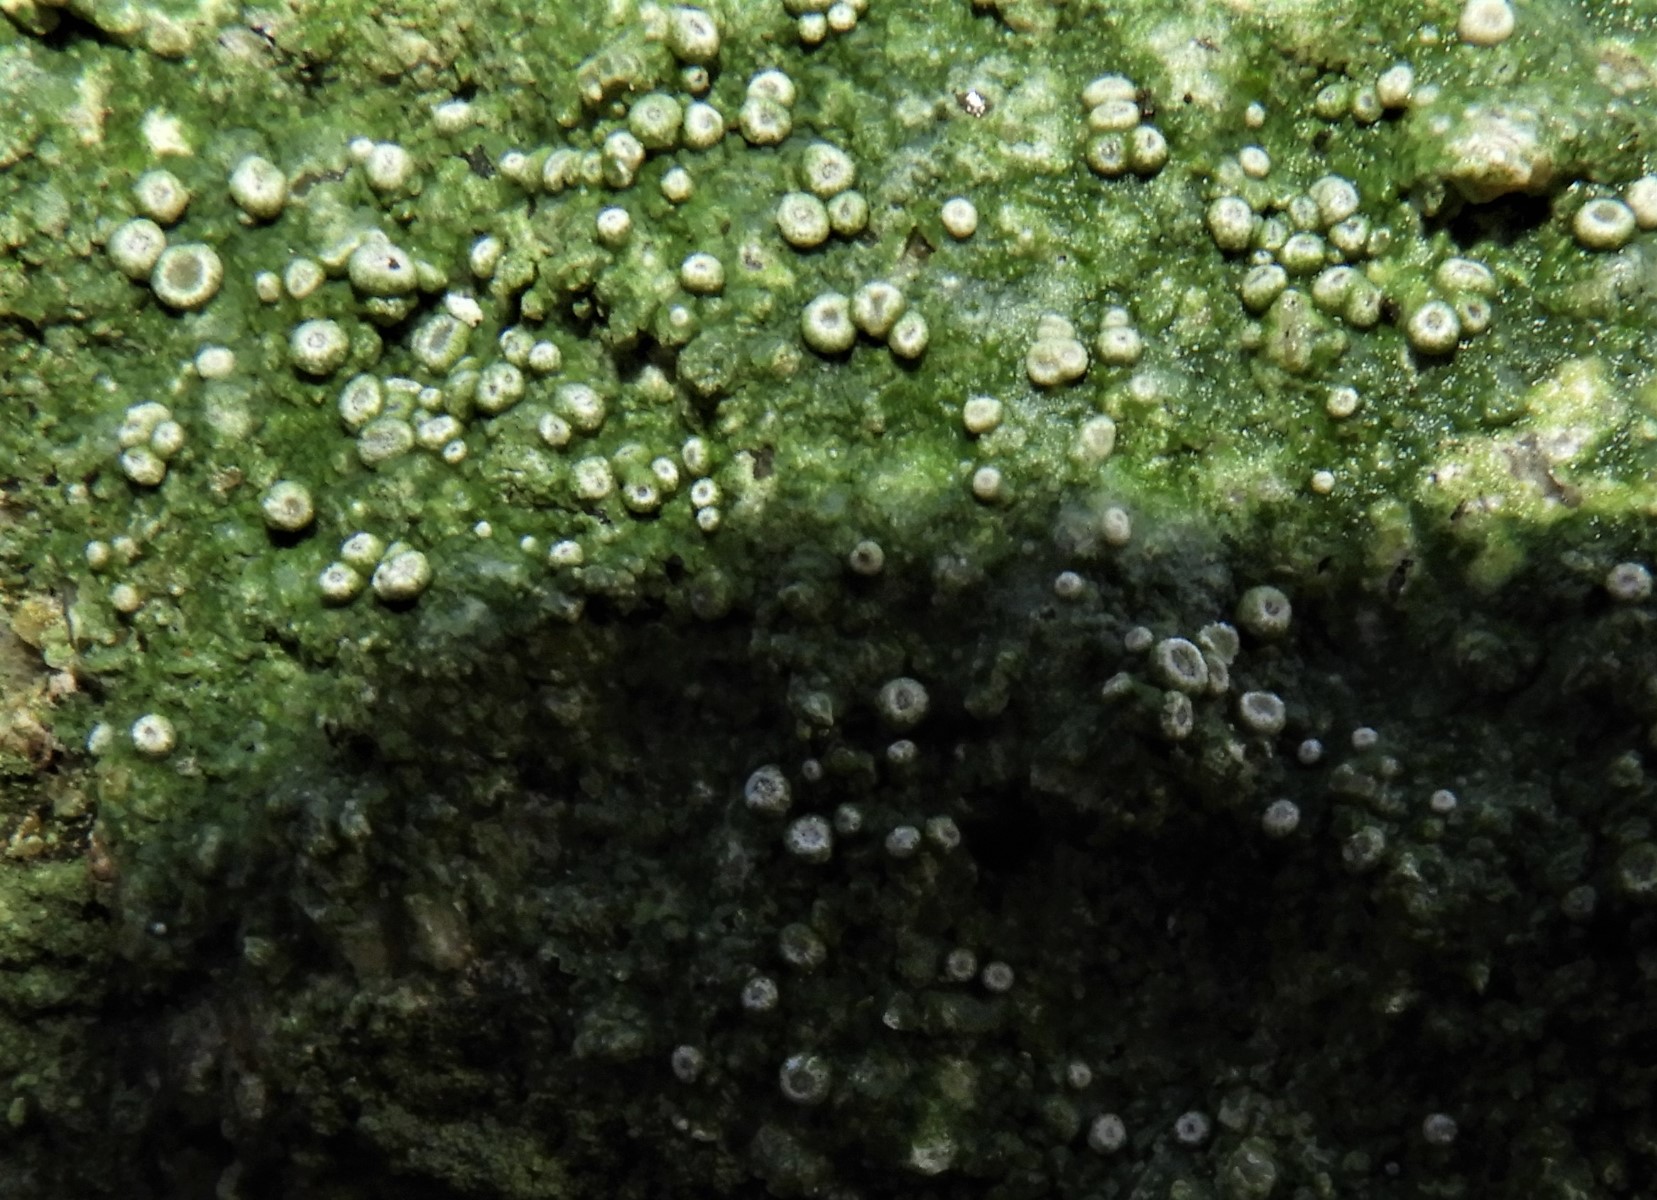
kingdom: Fungi
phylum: Ascomycota
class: Lecanoromycetes
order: Pertusariales
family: Ochrolechiaceae
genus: Ochrolechia
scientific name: Ochrolechia parella
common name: almindelig blegskivelav
